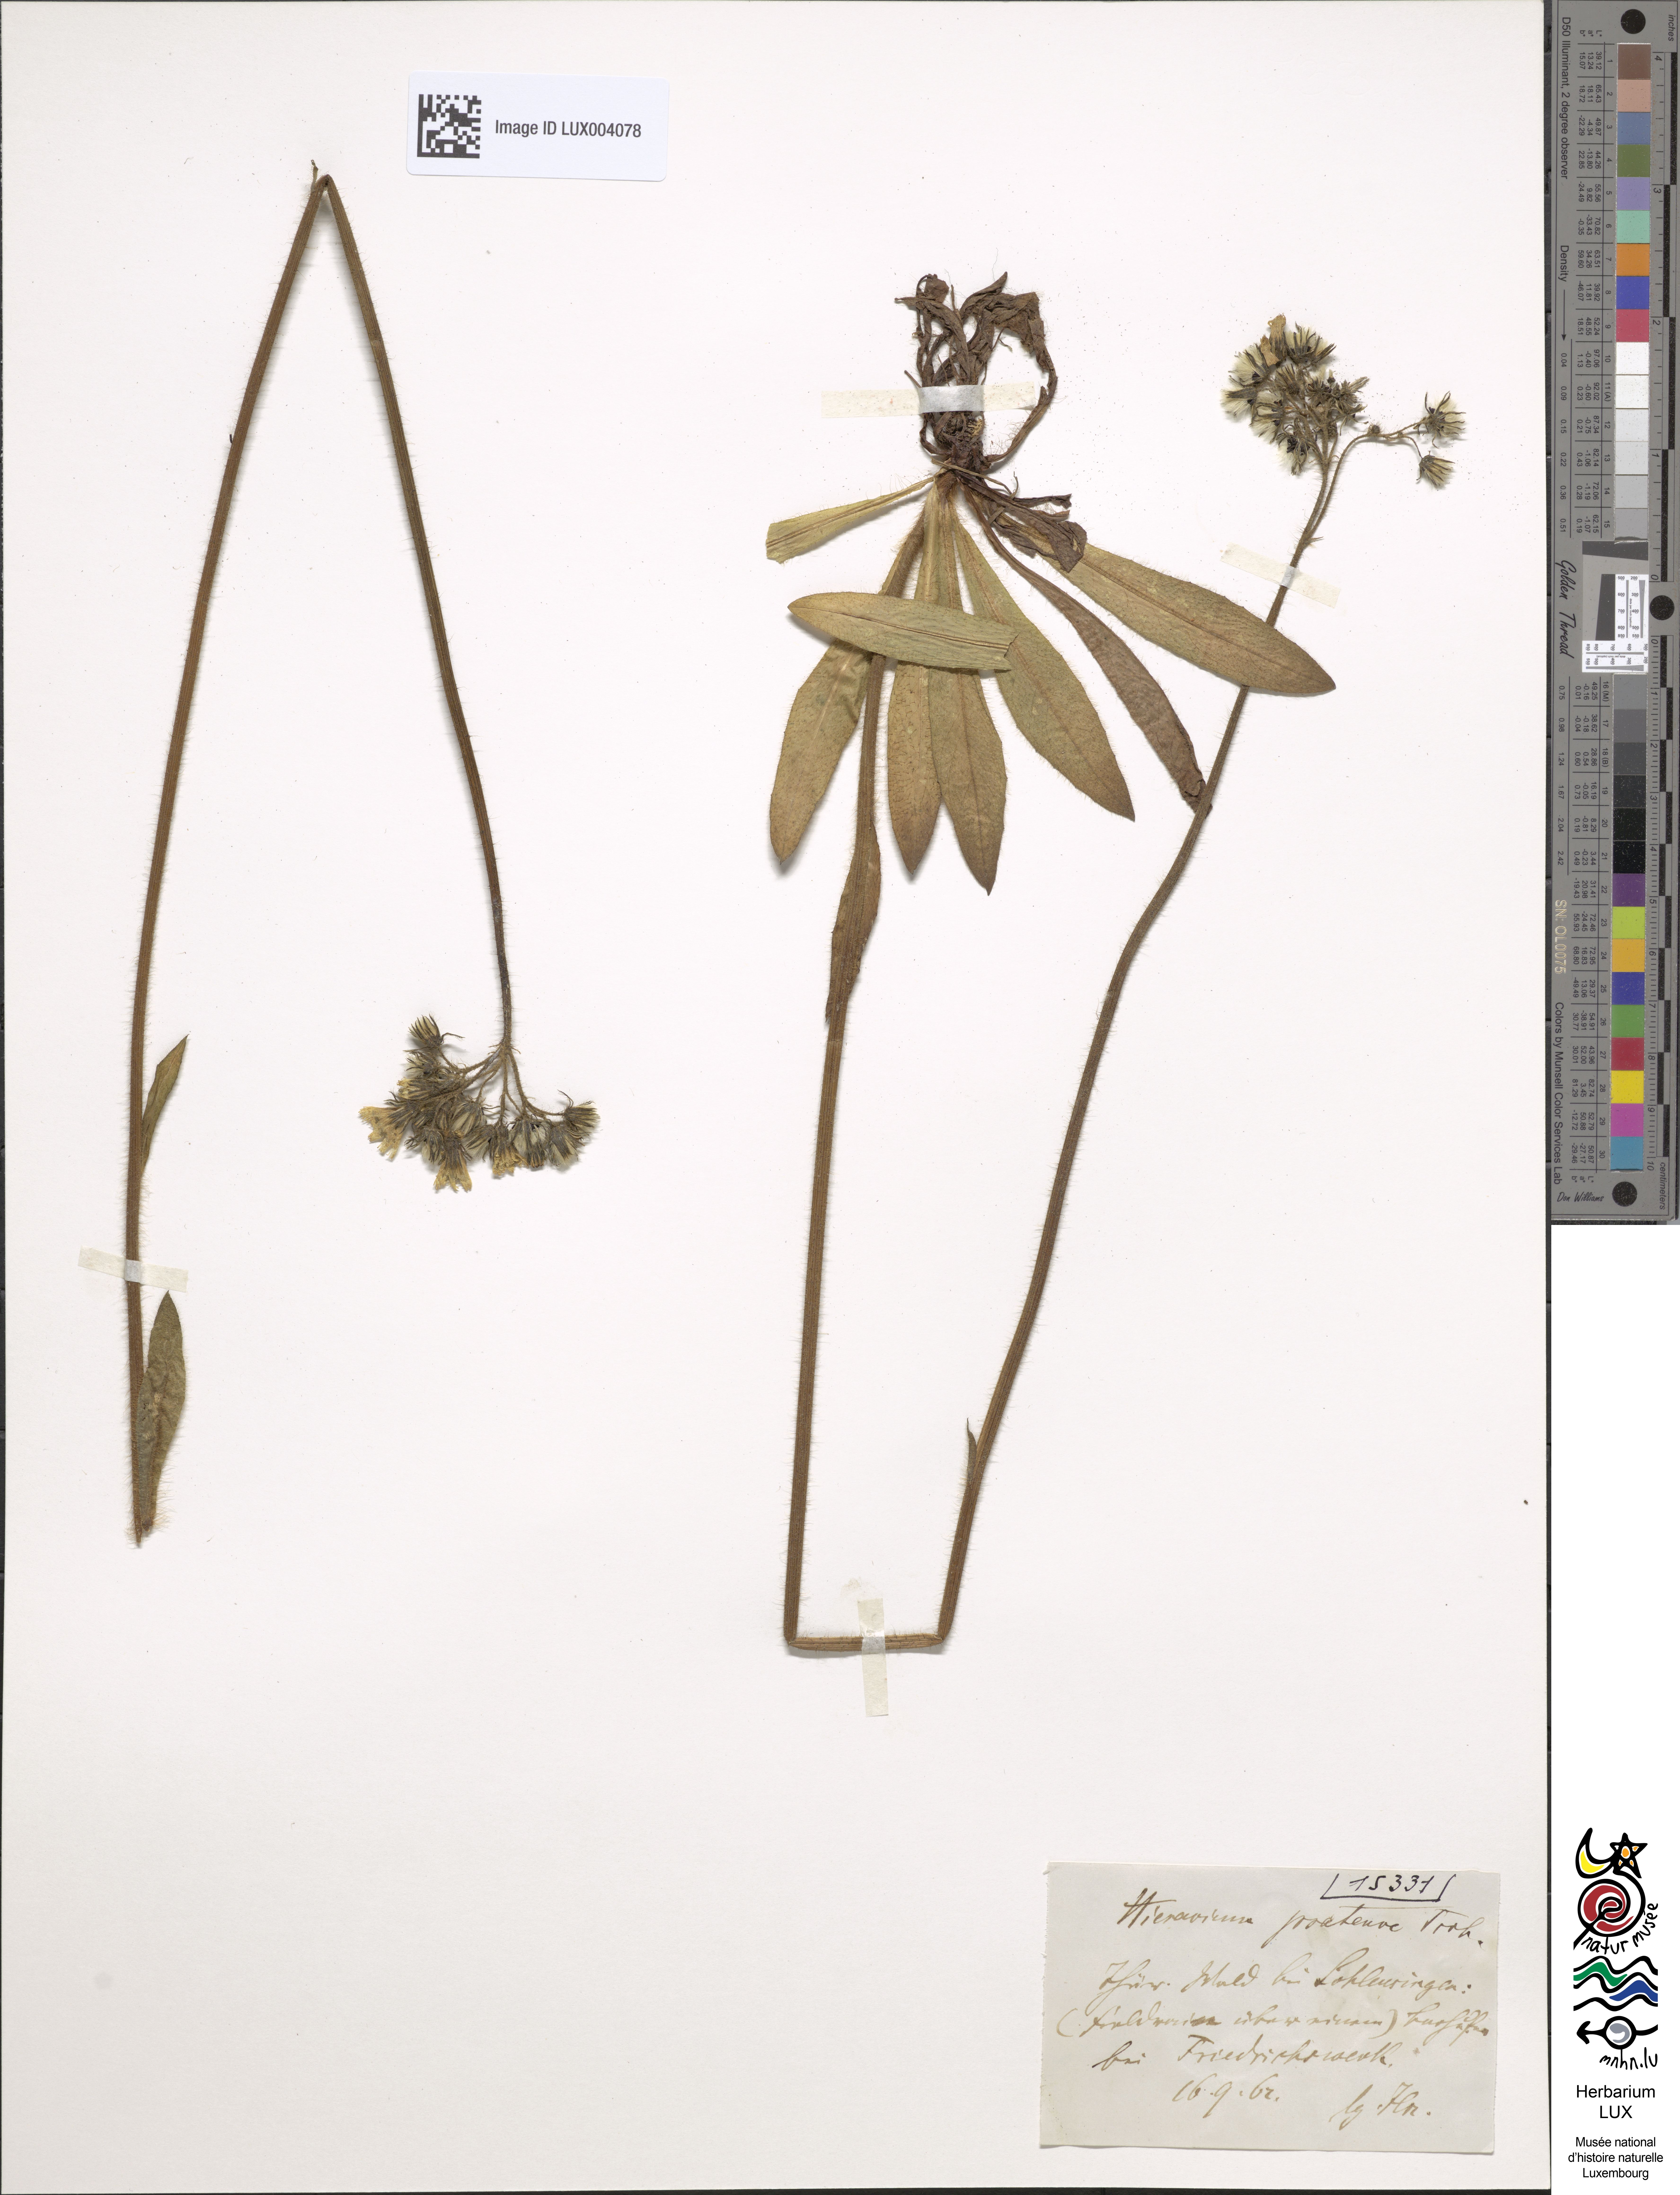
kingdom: Plantae
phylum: Tracheophyta
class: Magnoliopsida
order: Asterales
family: Asteraceae
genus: Pilosella
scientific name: Pilosella caespitosa
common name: Yellow fox-and-cubs
